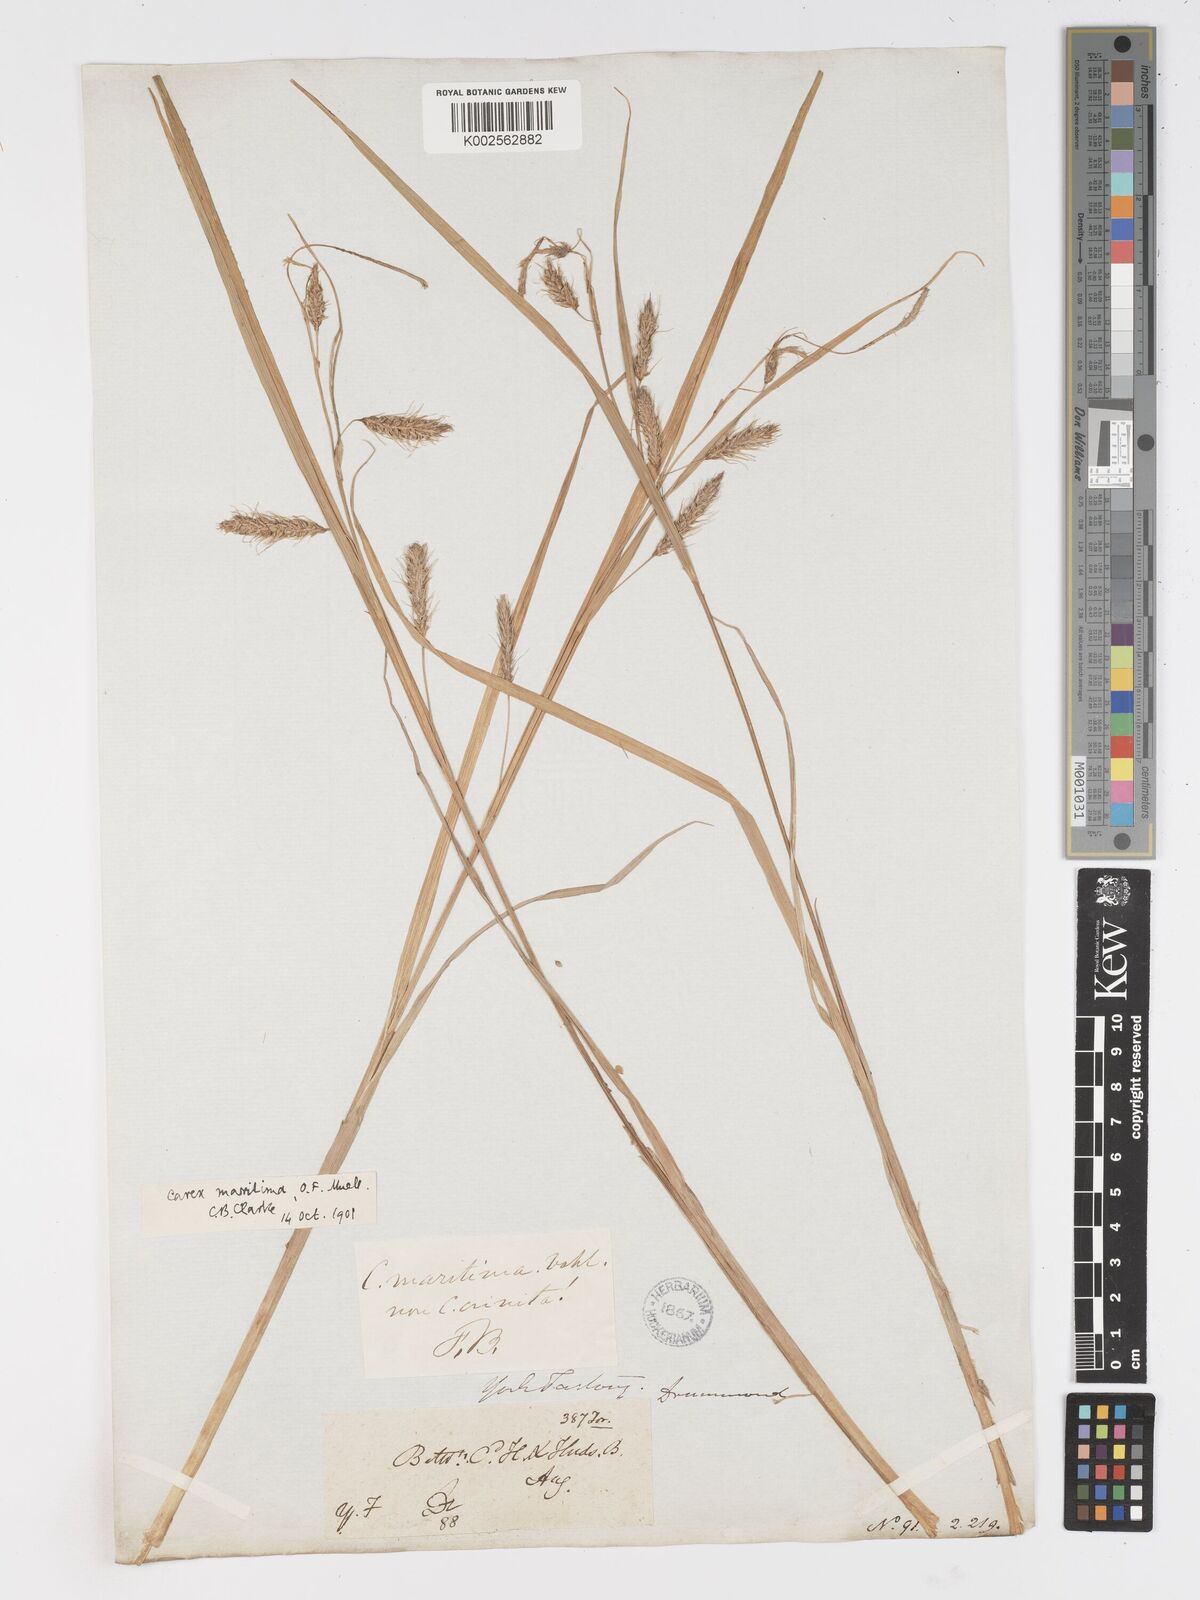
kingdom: Plantae
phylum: Tracheophyta
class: Liliopsida
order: Poales
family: Cyperaceae
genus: Carex
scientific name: Carex paleacea
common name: Chaffy sedge
